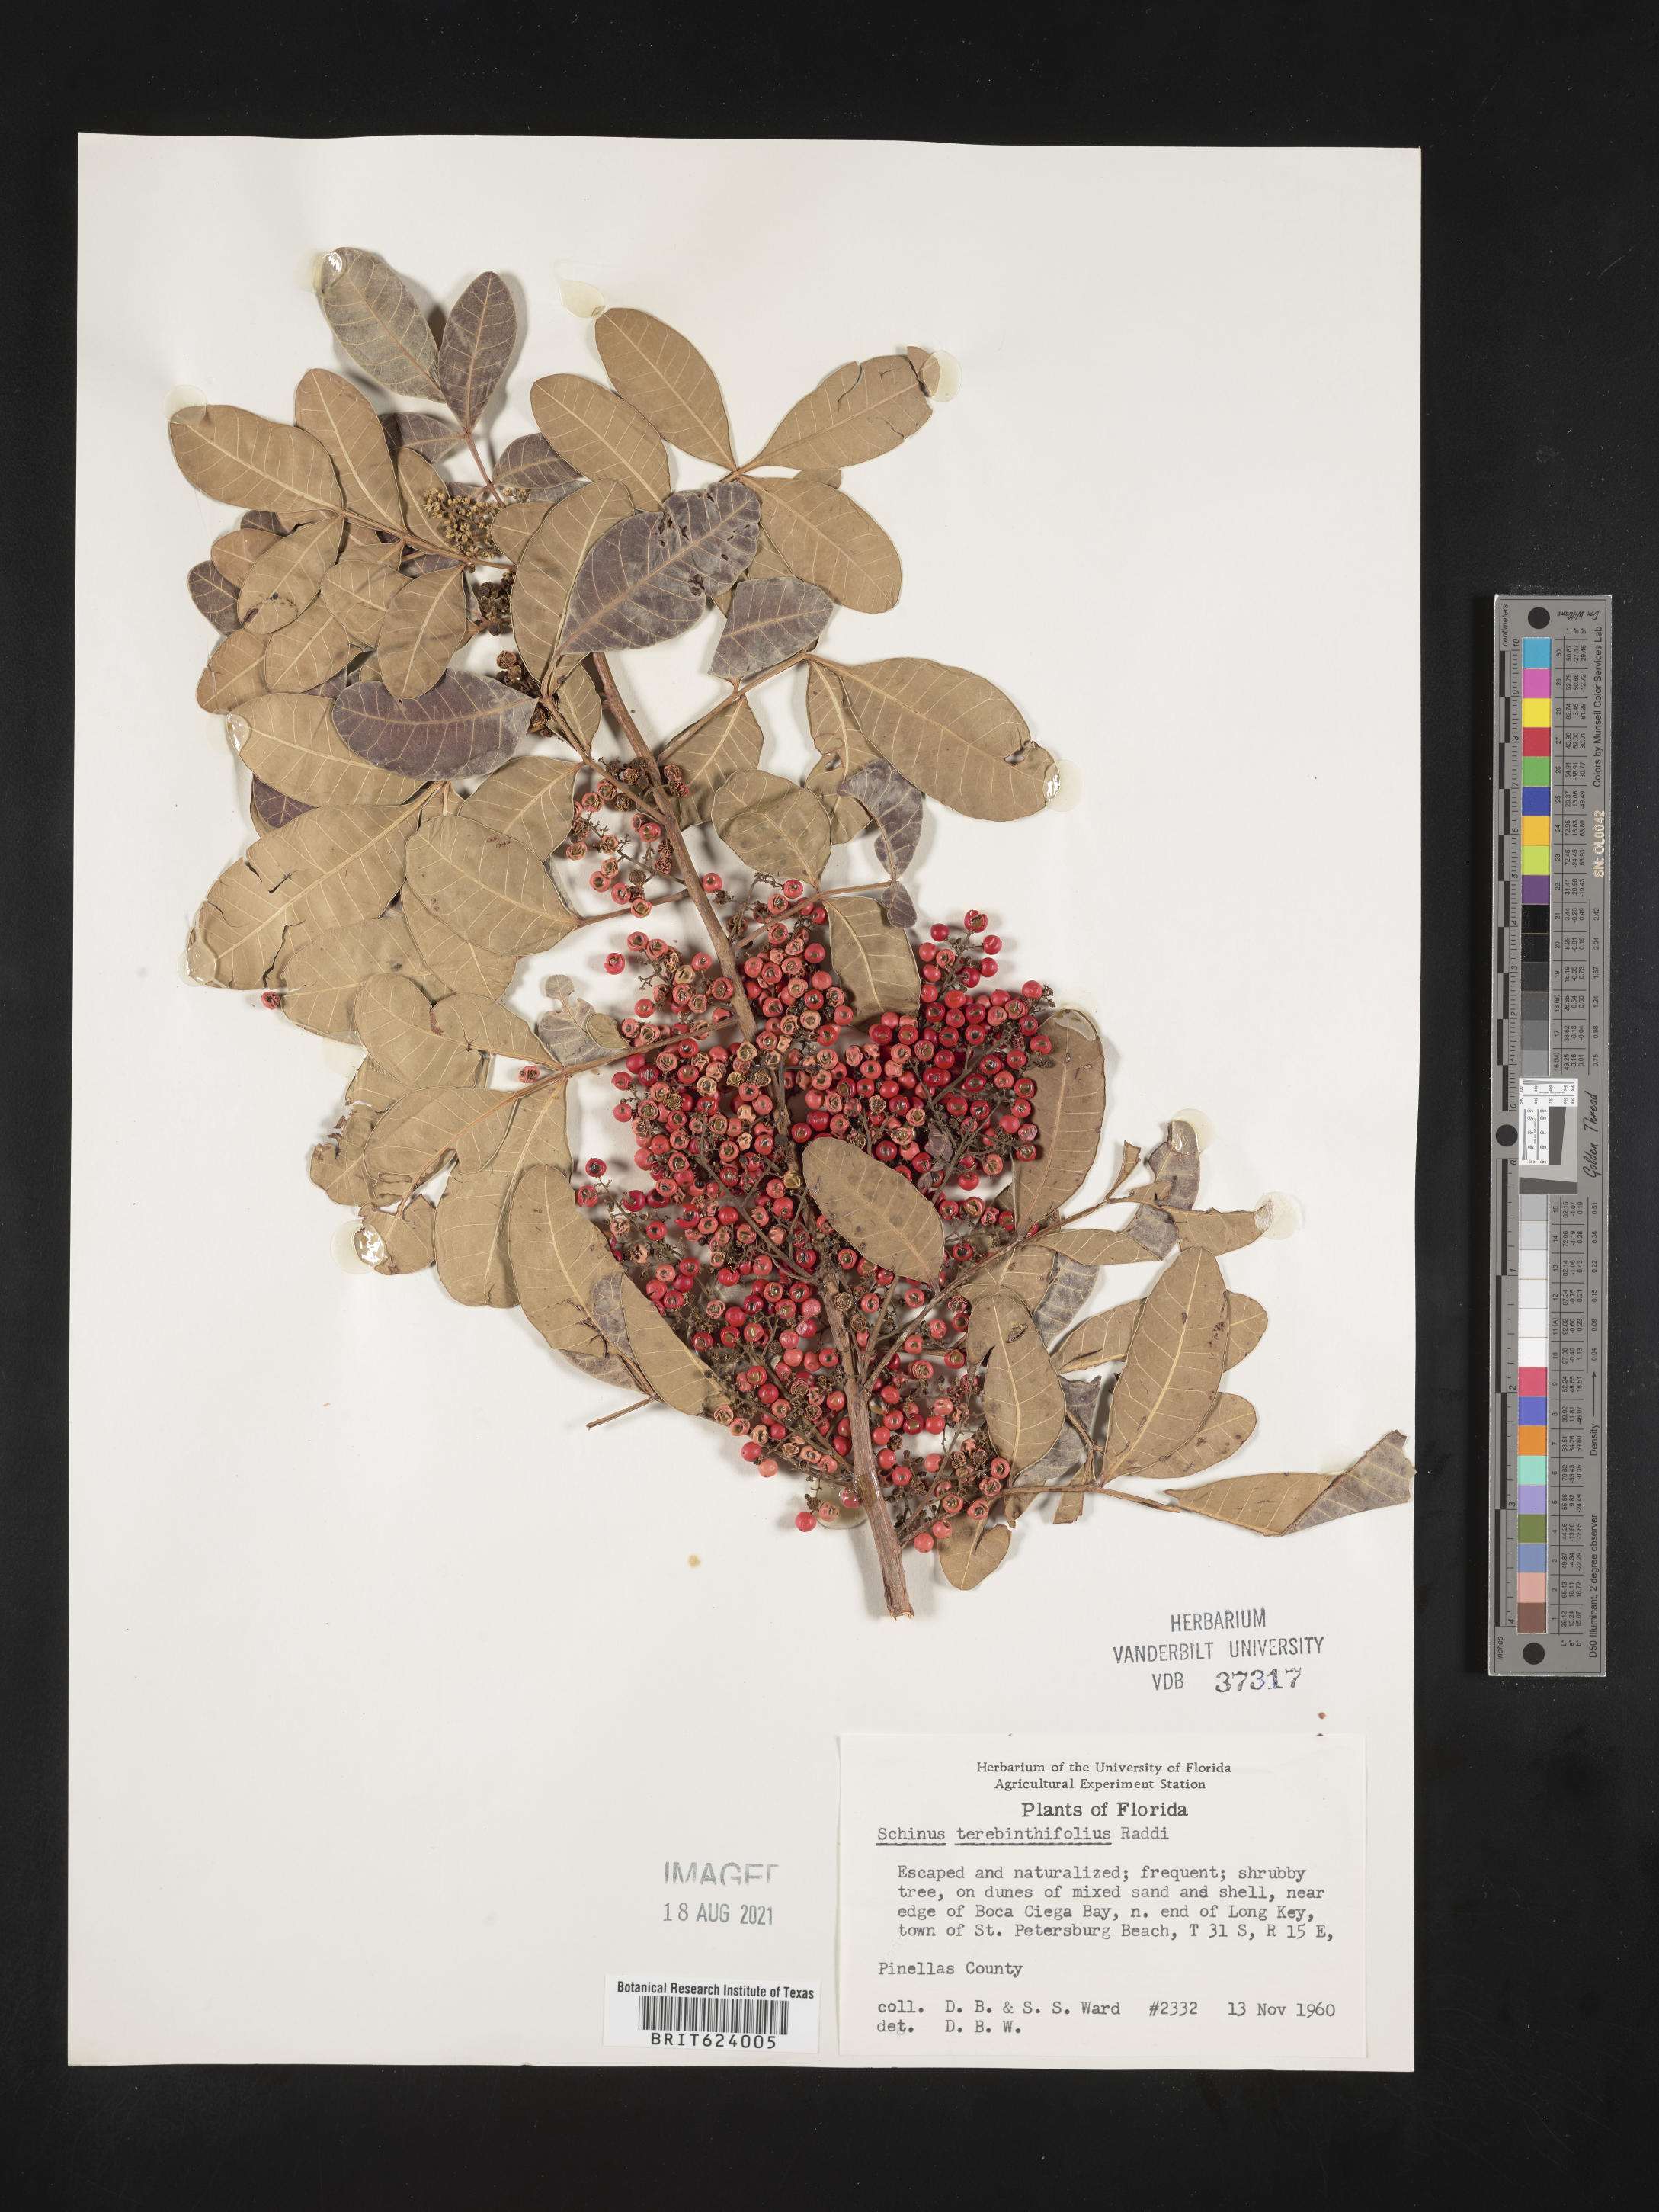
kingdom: Plantae
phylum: Tracheophyta
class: Magnoliopsida
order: Sapindales
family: Anacardiaceae
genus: Schinus
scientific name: Schinus terebinthifolia
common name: Brazilian peppertree
